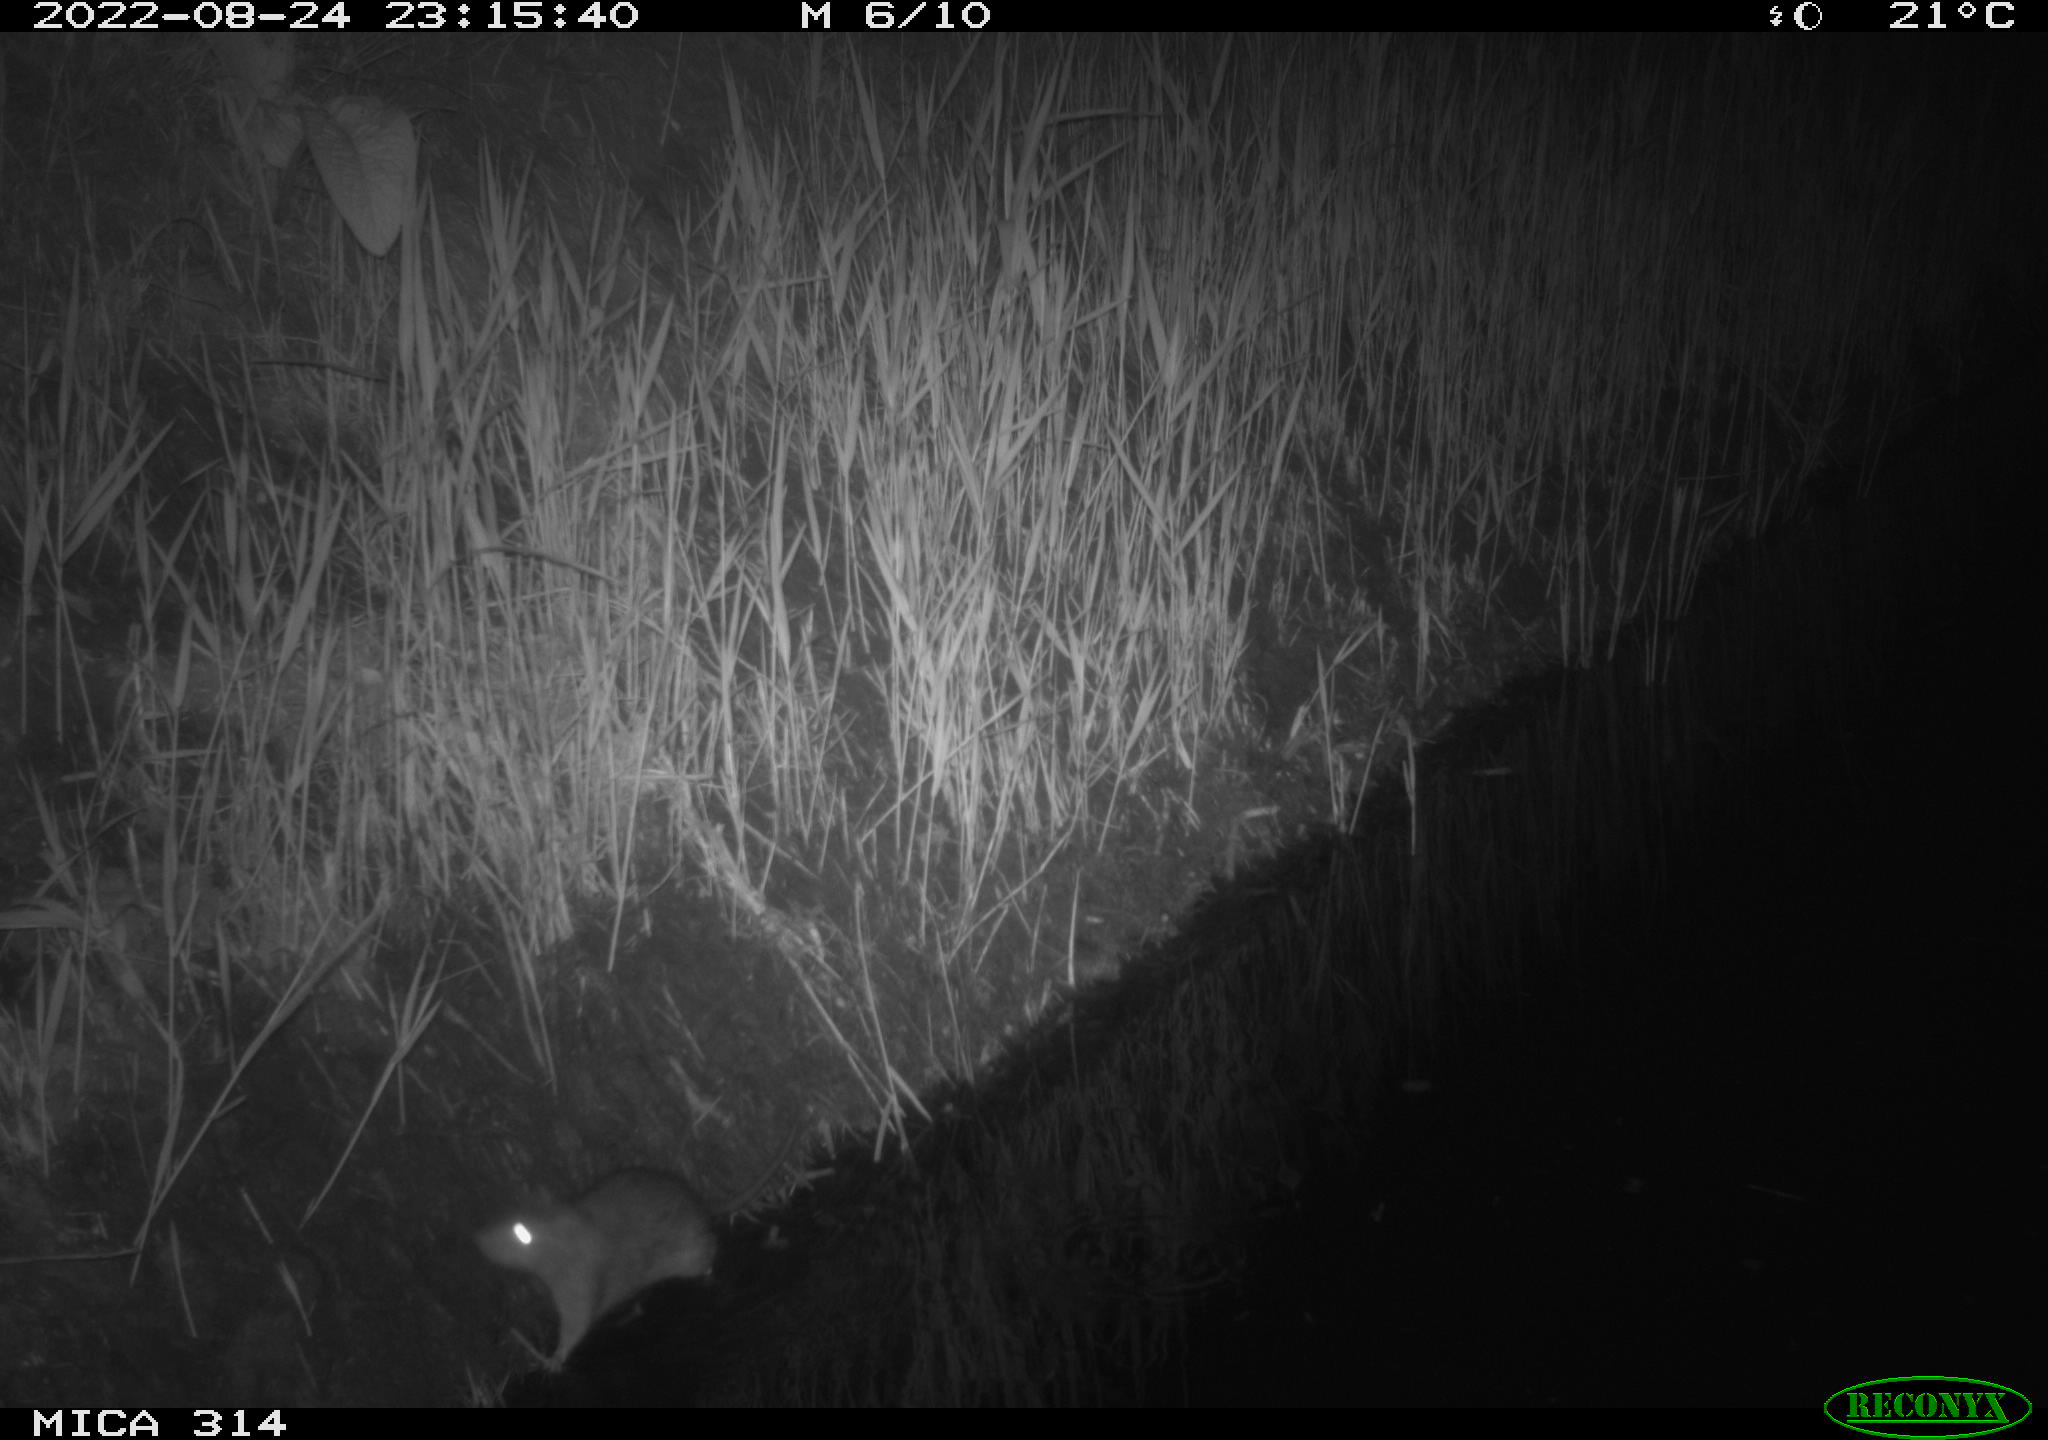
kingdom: Animalia
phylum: Chordata
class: Mammalia
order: Rodentia
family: Muridae
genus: Rattus
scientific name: Rattus norvegicus
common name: Brown rat
